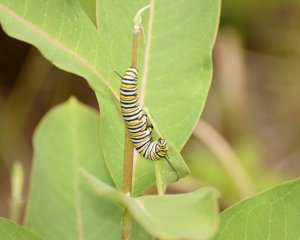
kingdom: Animalia
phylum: Arthropoda
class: Insecta
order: Lepidoptera
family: Nymphalidae
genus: Danaus
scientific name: Danaus plexippus
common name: Monarch
